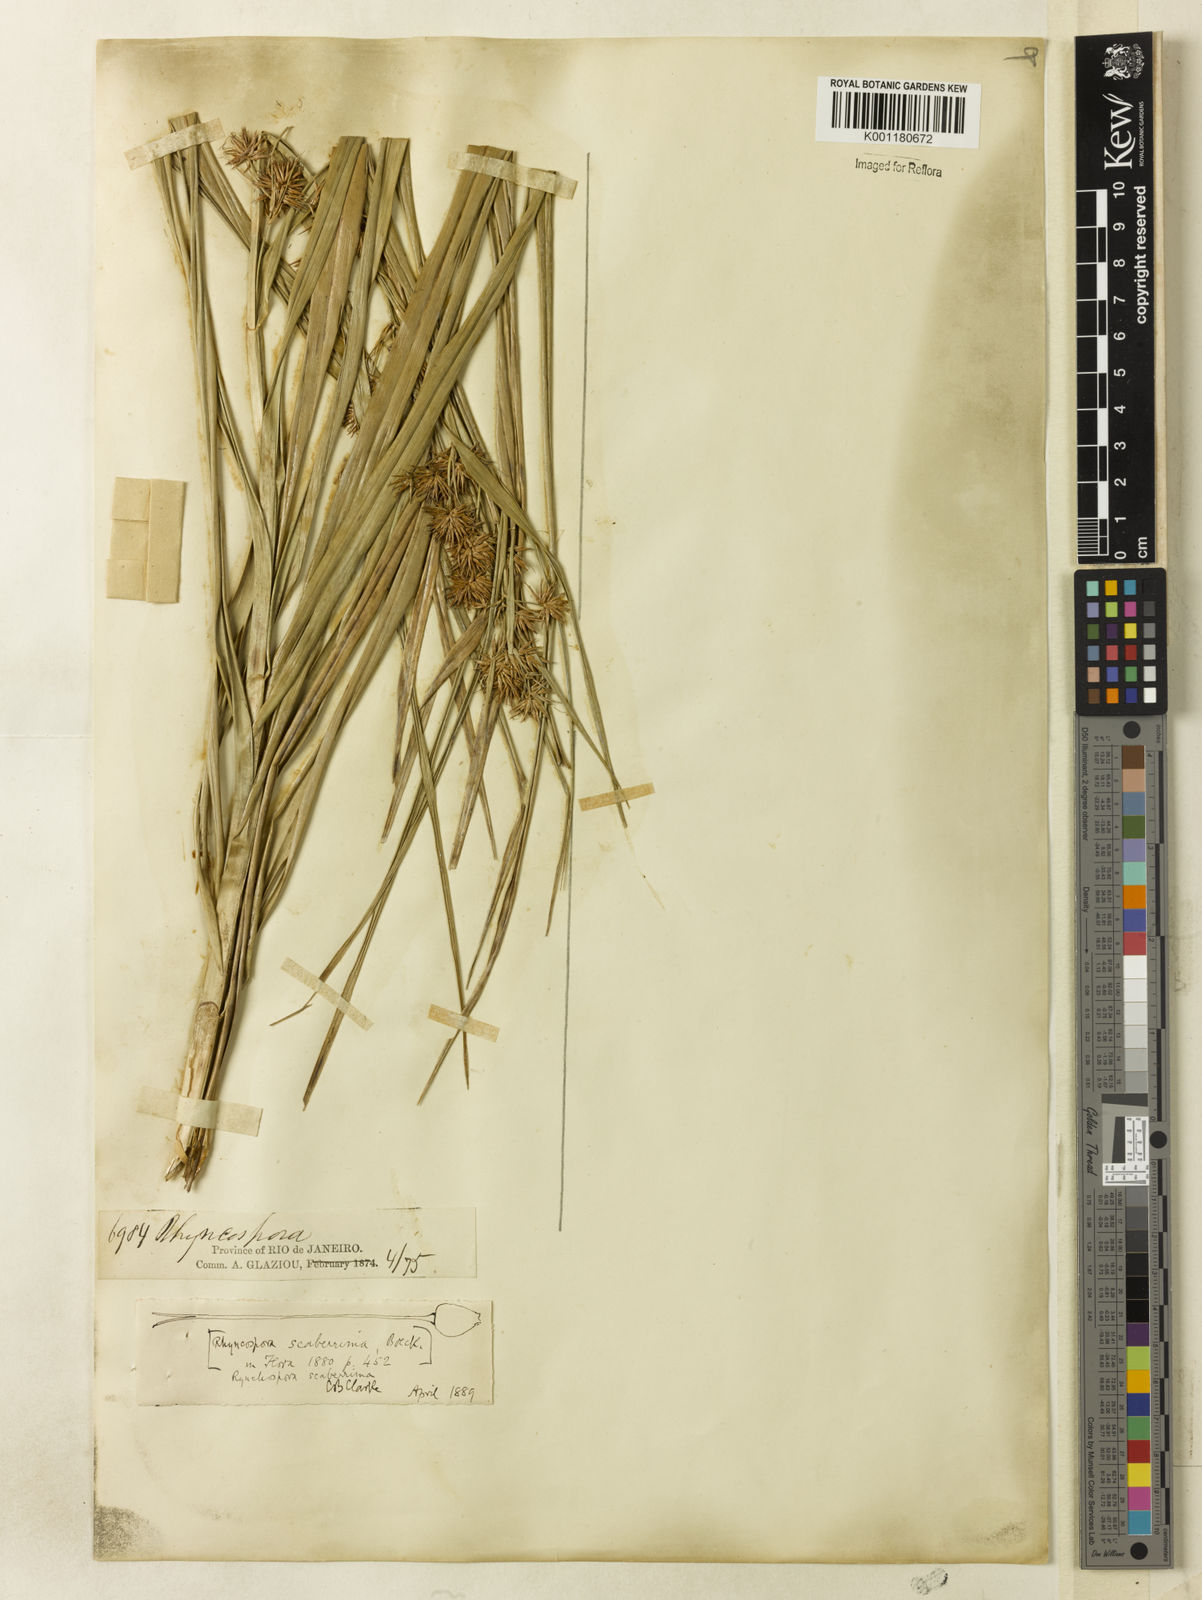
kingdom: Plantae
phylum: Tracheophyta
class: Liliopsida
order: Poales
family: Cyperaceae
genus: Rhynchospora
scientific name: Rhynchospora gigantea
